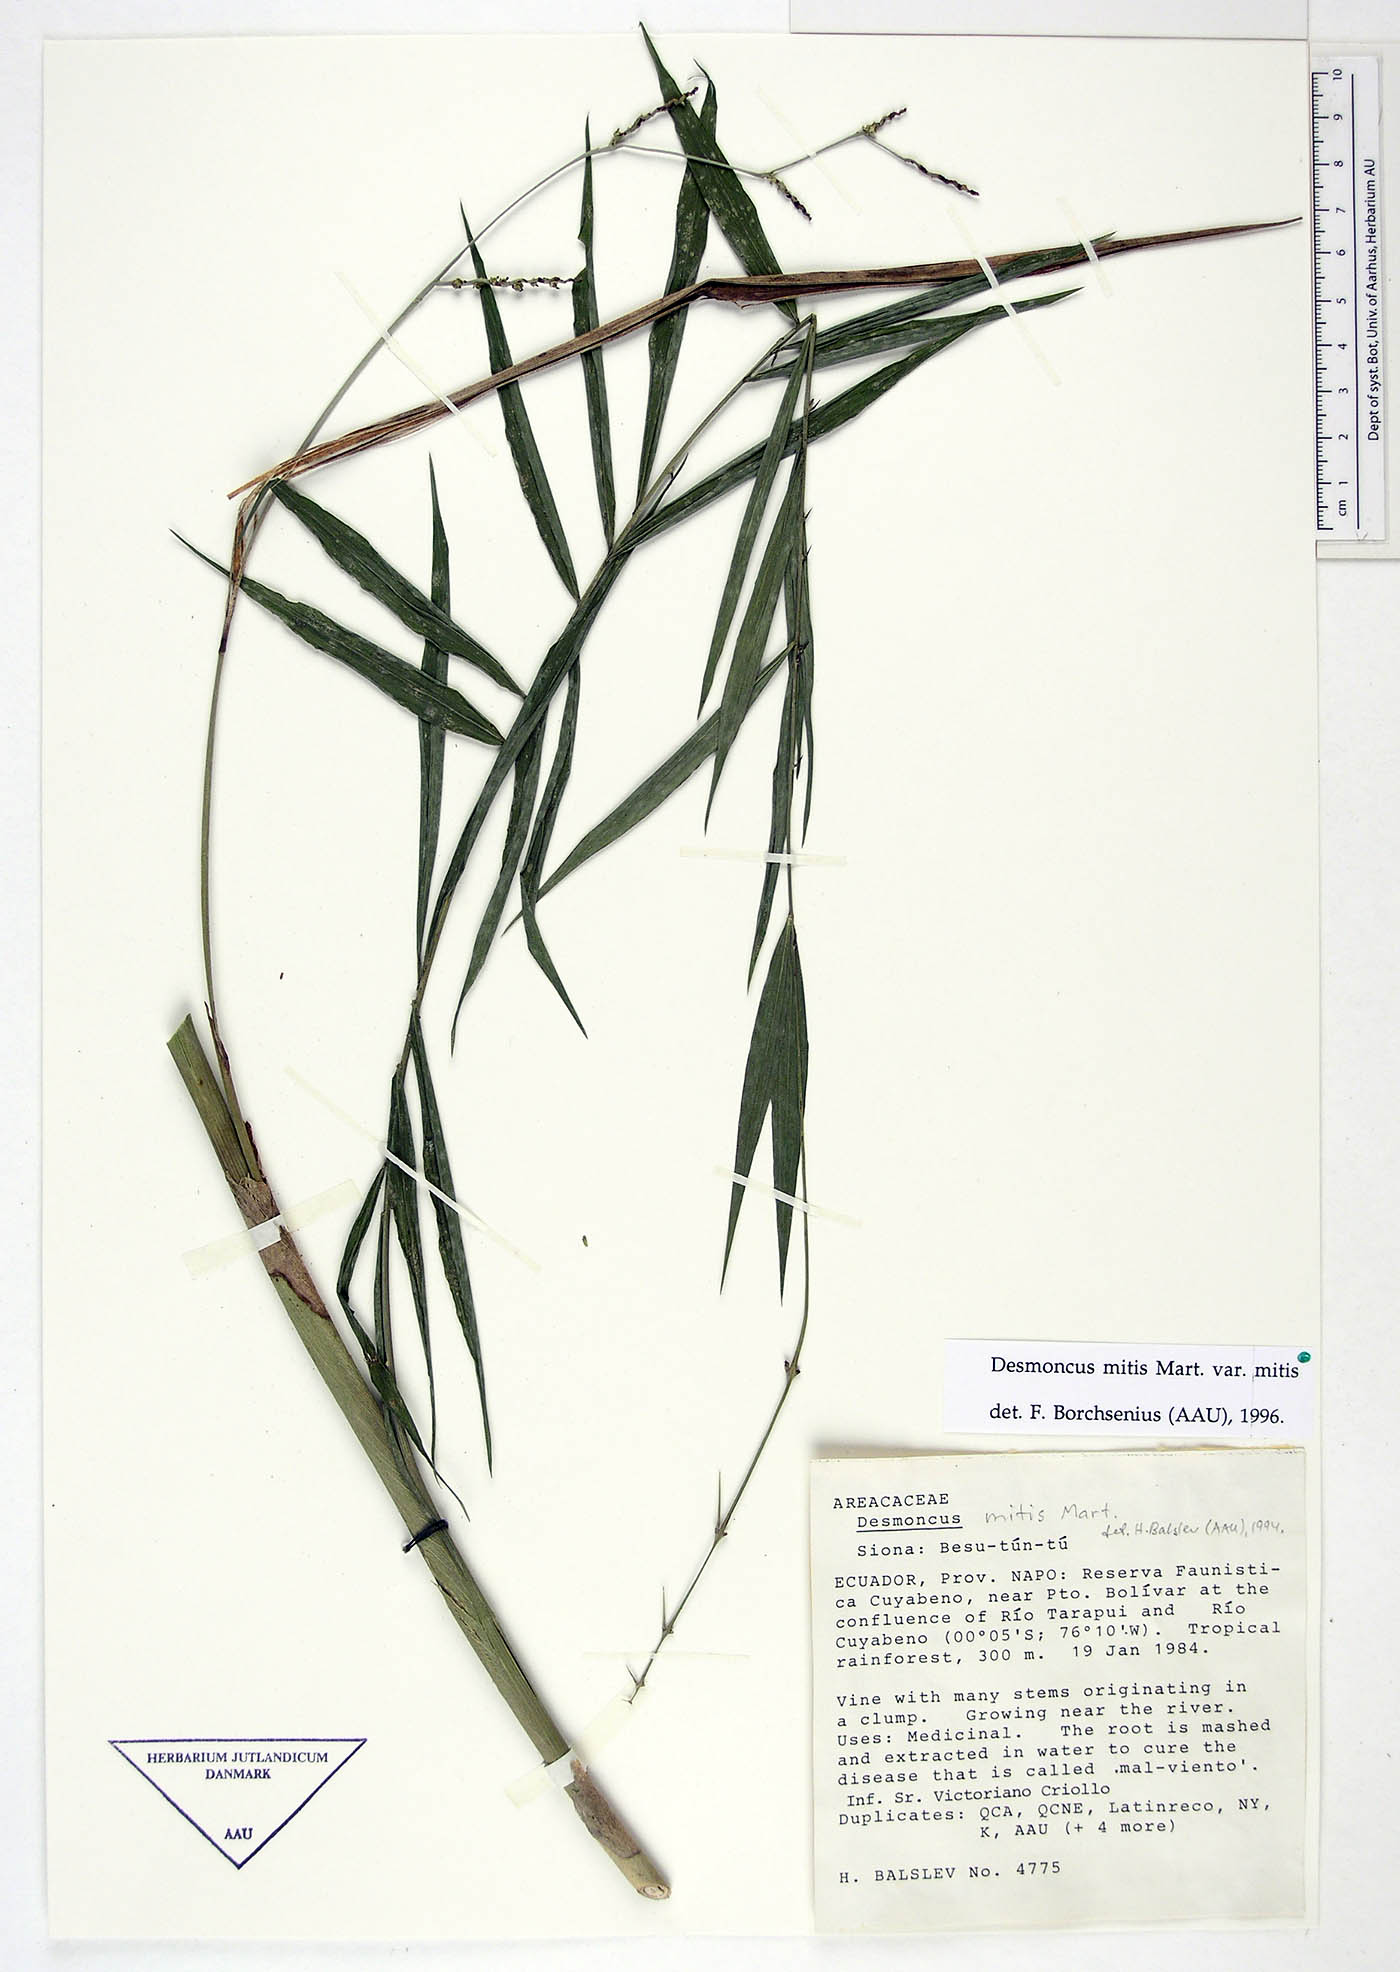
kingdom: Plantae
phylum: Tracheophyta
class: Liliopsida
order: Arecales
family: Arecaceae
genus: Desmoncus
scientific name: Desmoncus mitis
